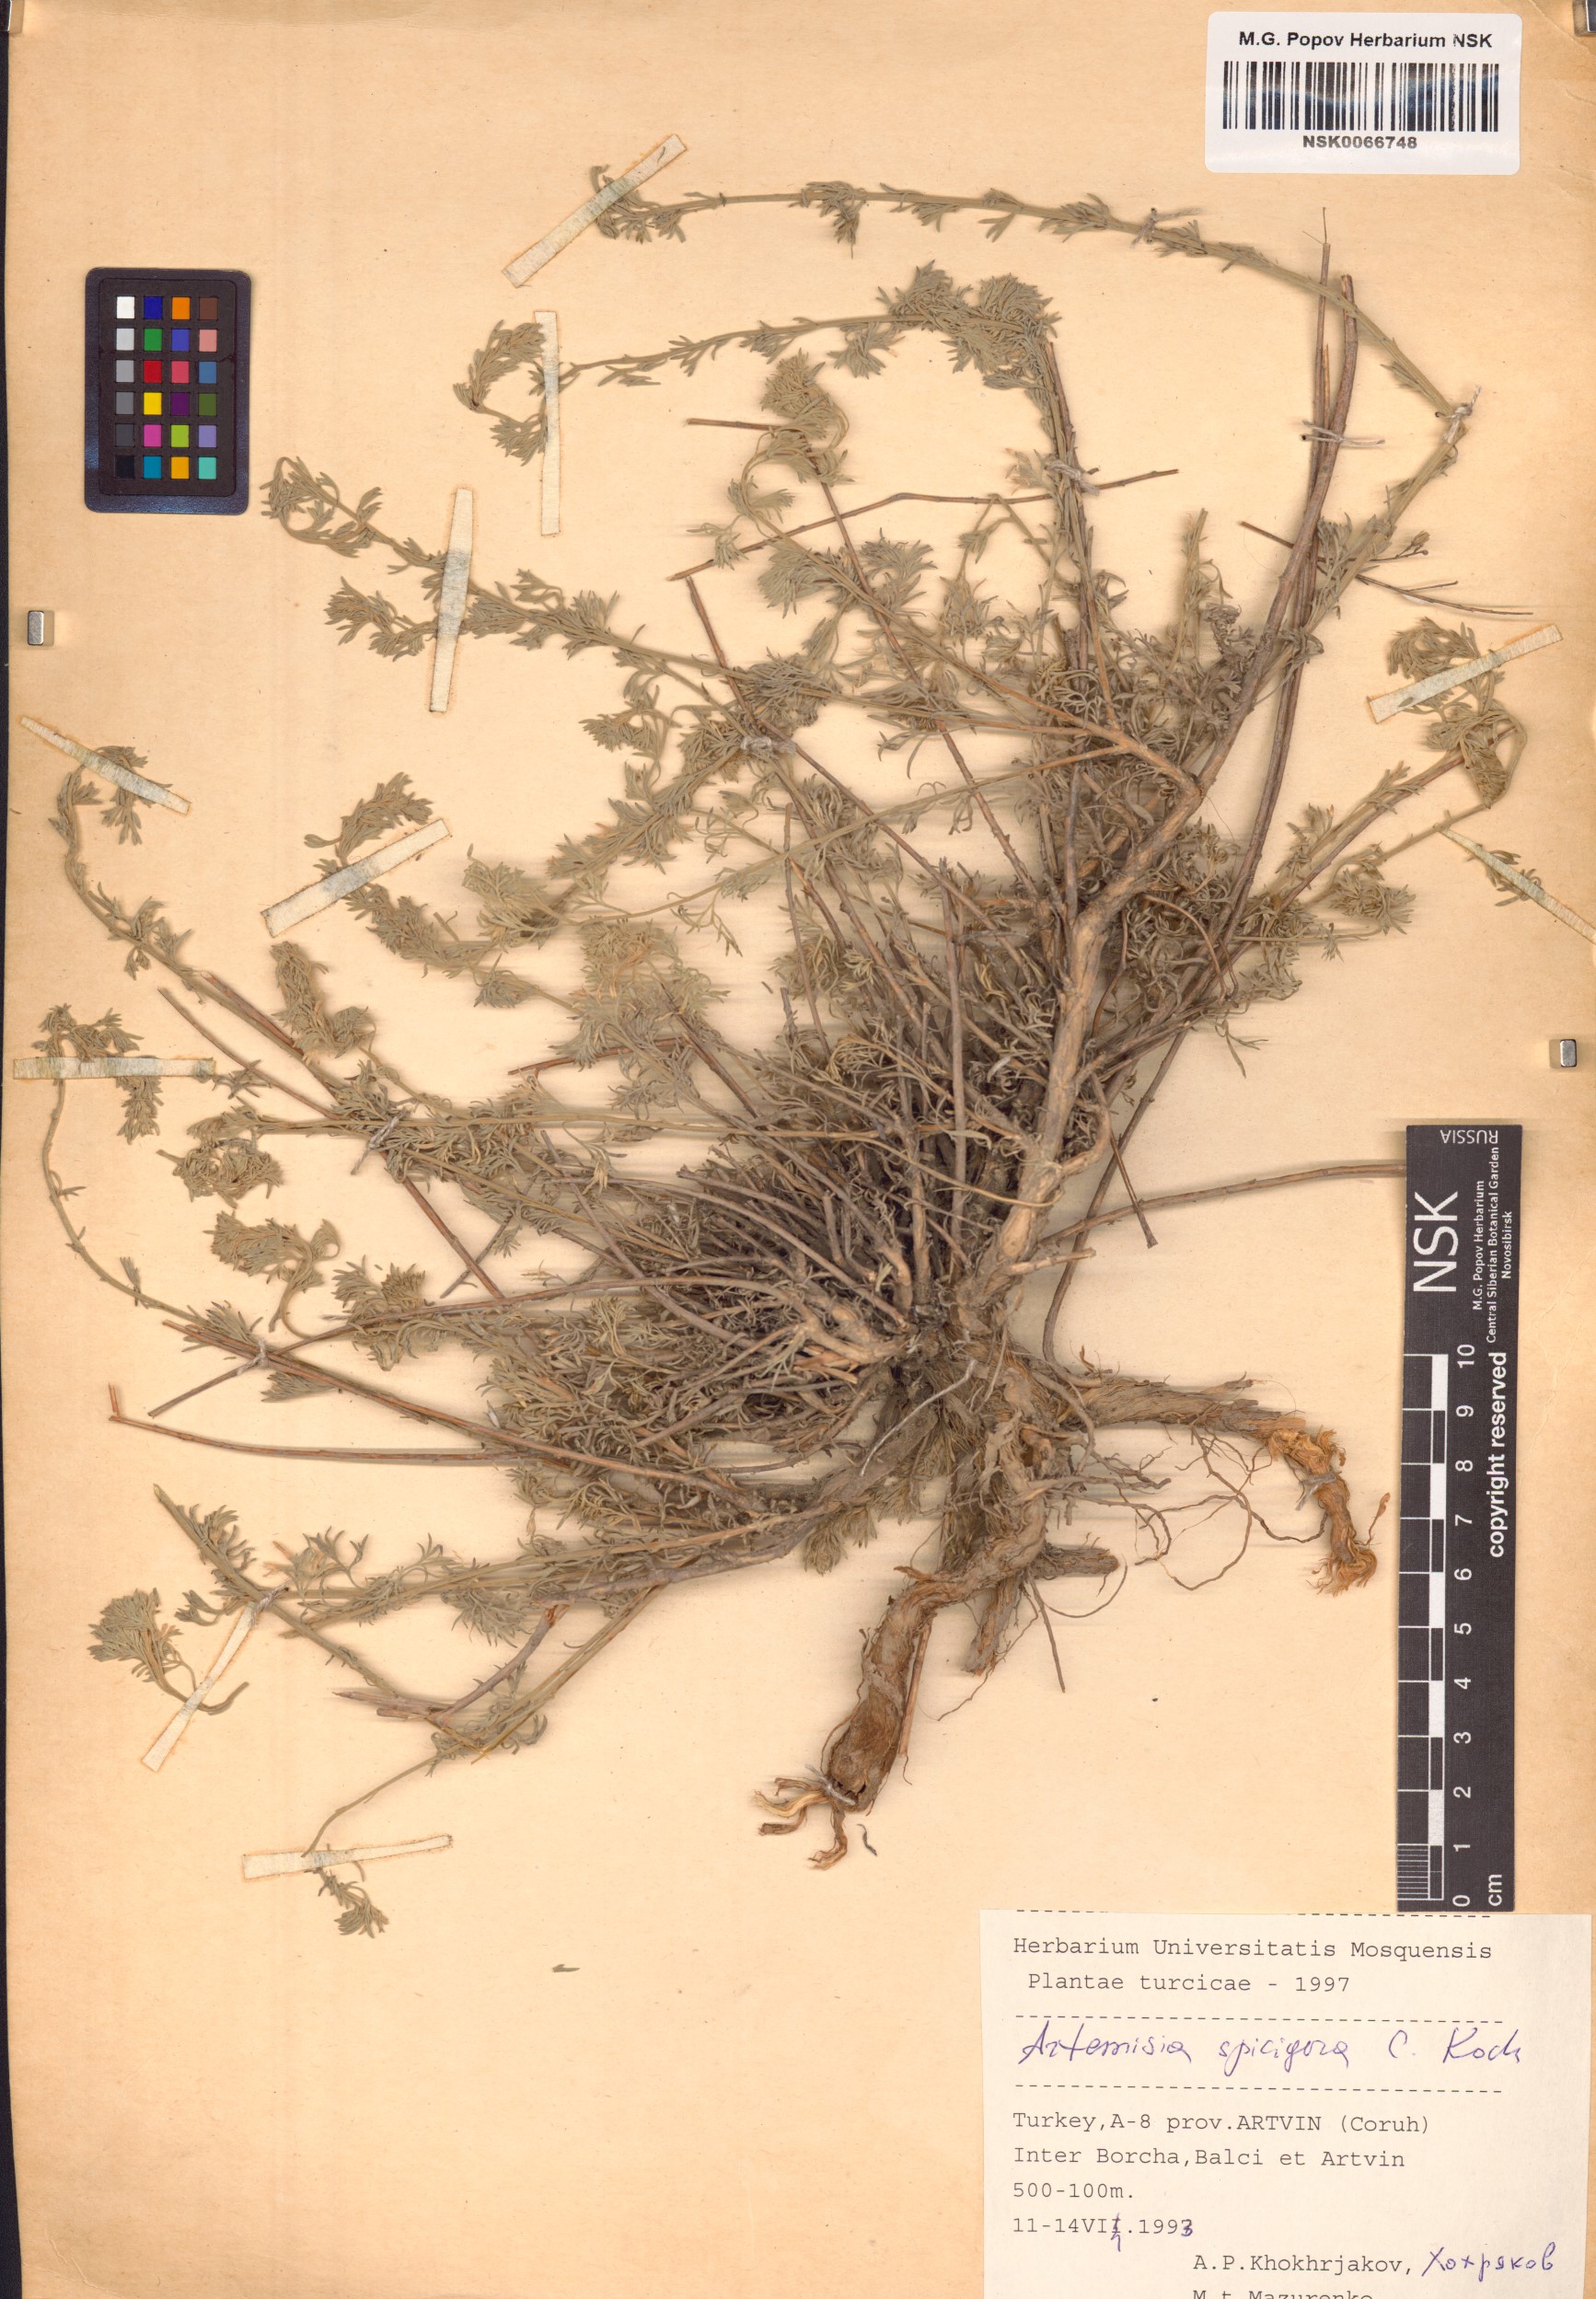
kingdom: Plantae
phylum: Tracheophyta
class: Magnoliopsida
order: Asterales
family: Asteraceae
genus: Artemisia
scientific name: Artemisia spicigera
